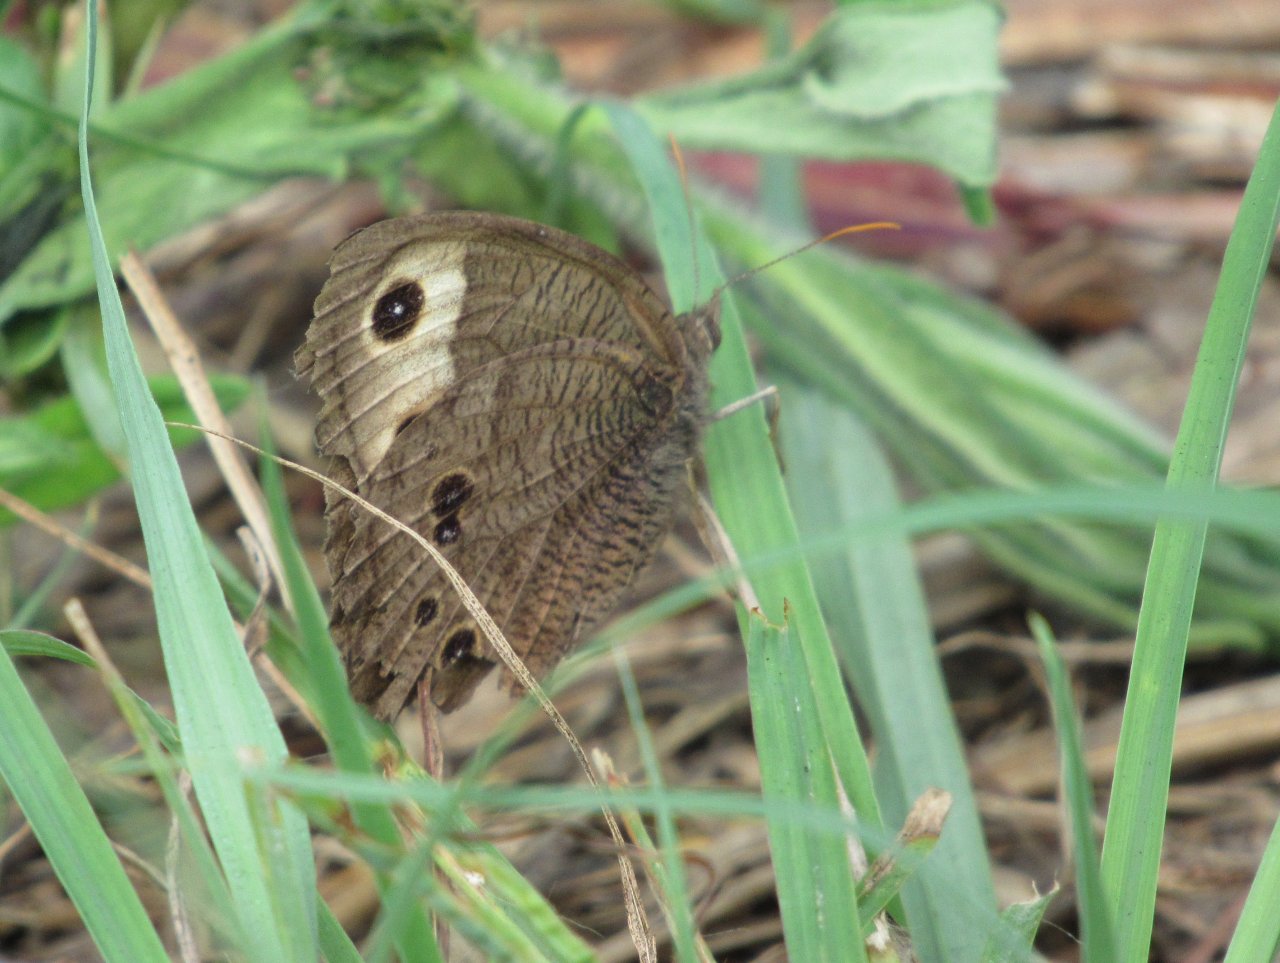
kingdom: Animalia
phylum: Arthropoda
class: Insecta
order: Lepidoptera
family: Nymphalidae
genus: Cercyonis
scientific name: Cercyonis pegala
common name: Common Wood-Nymph
